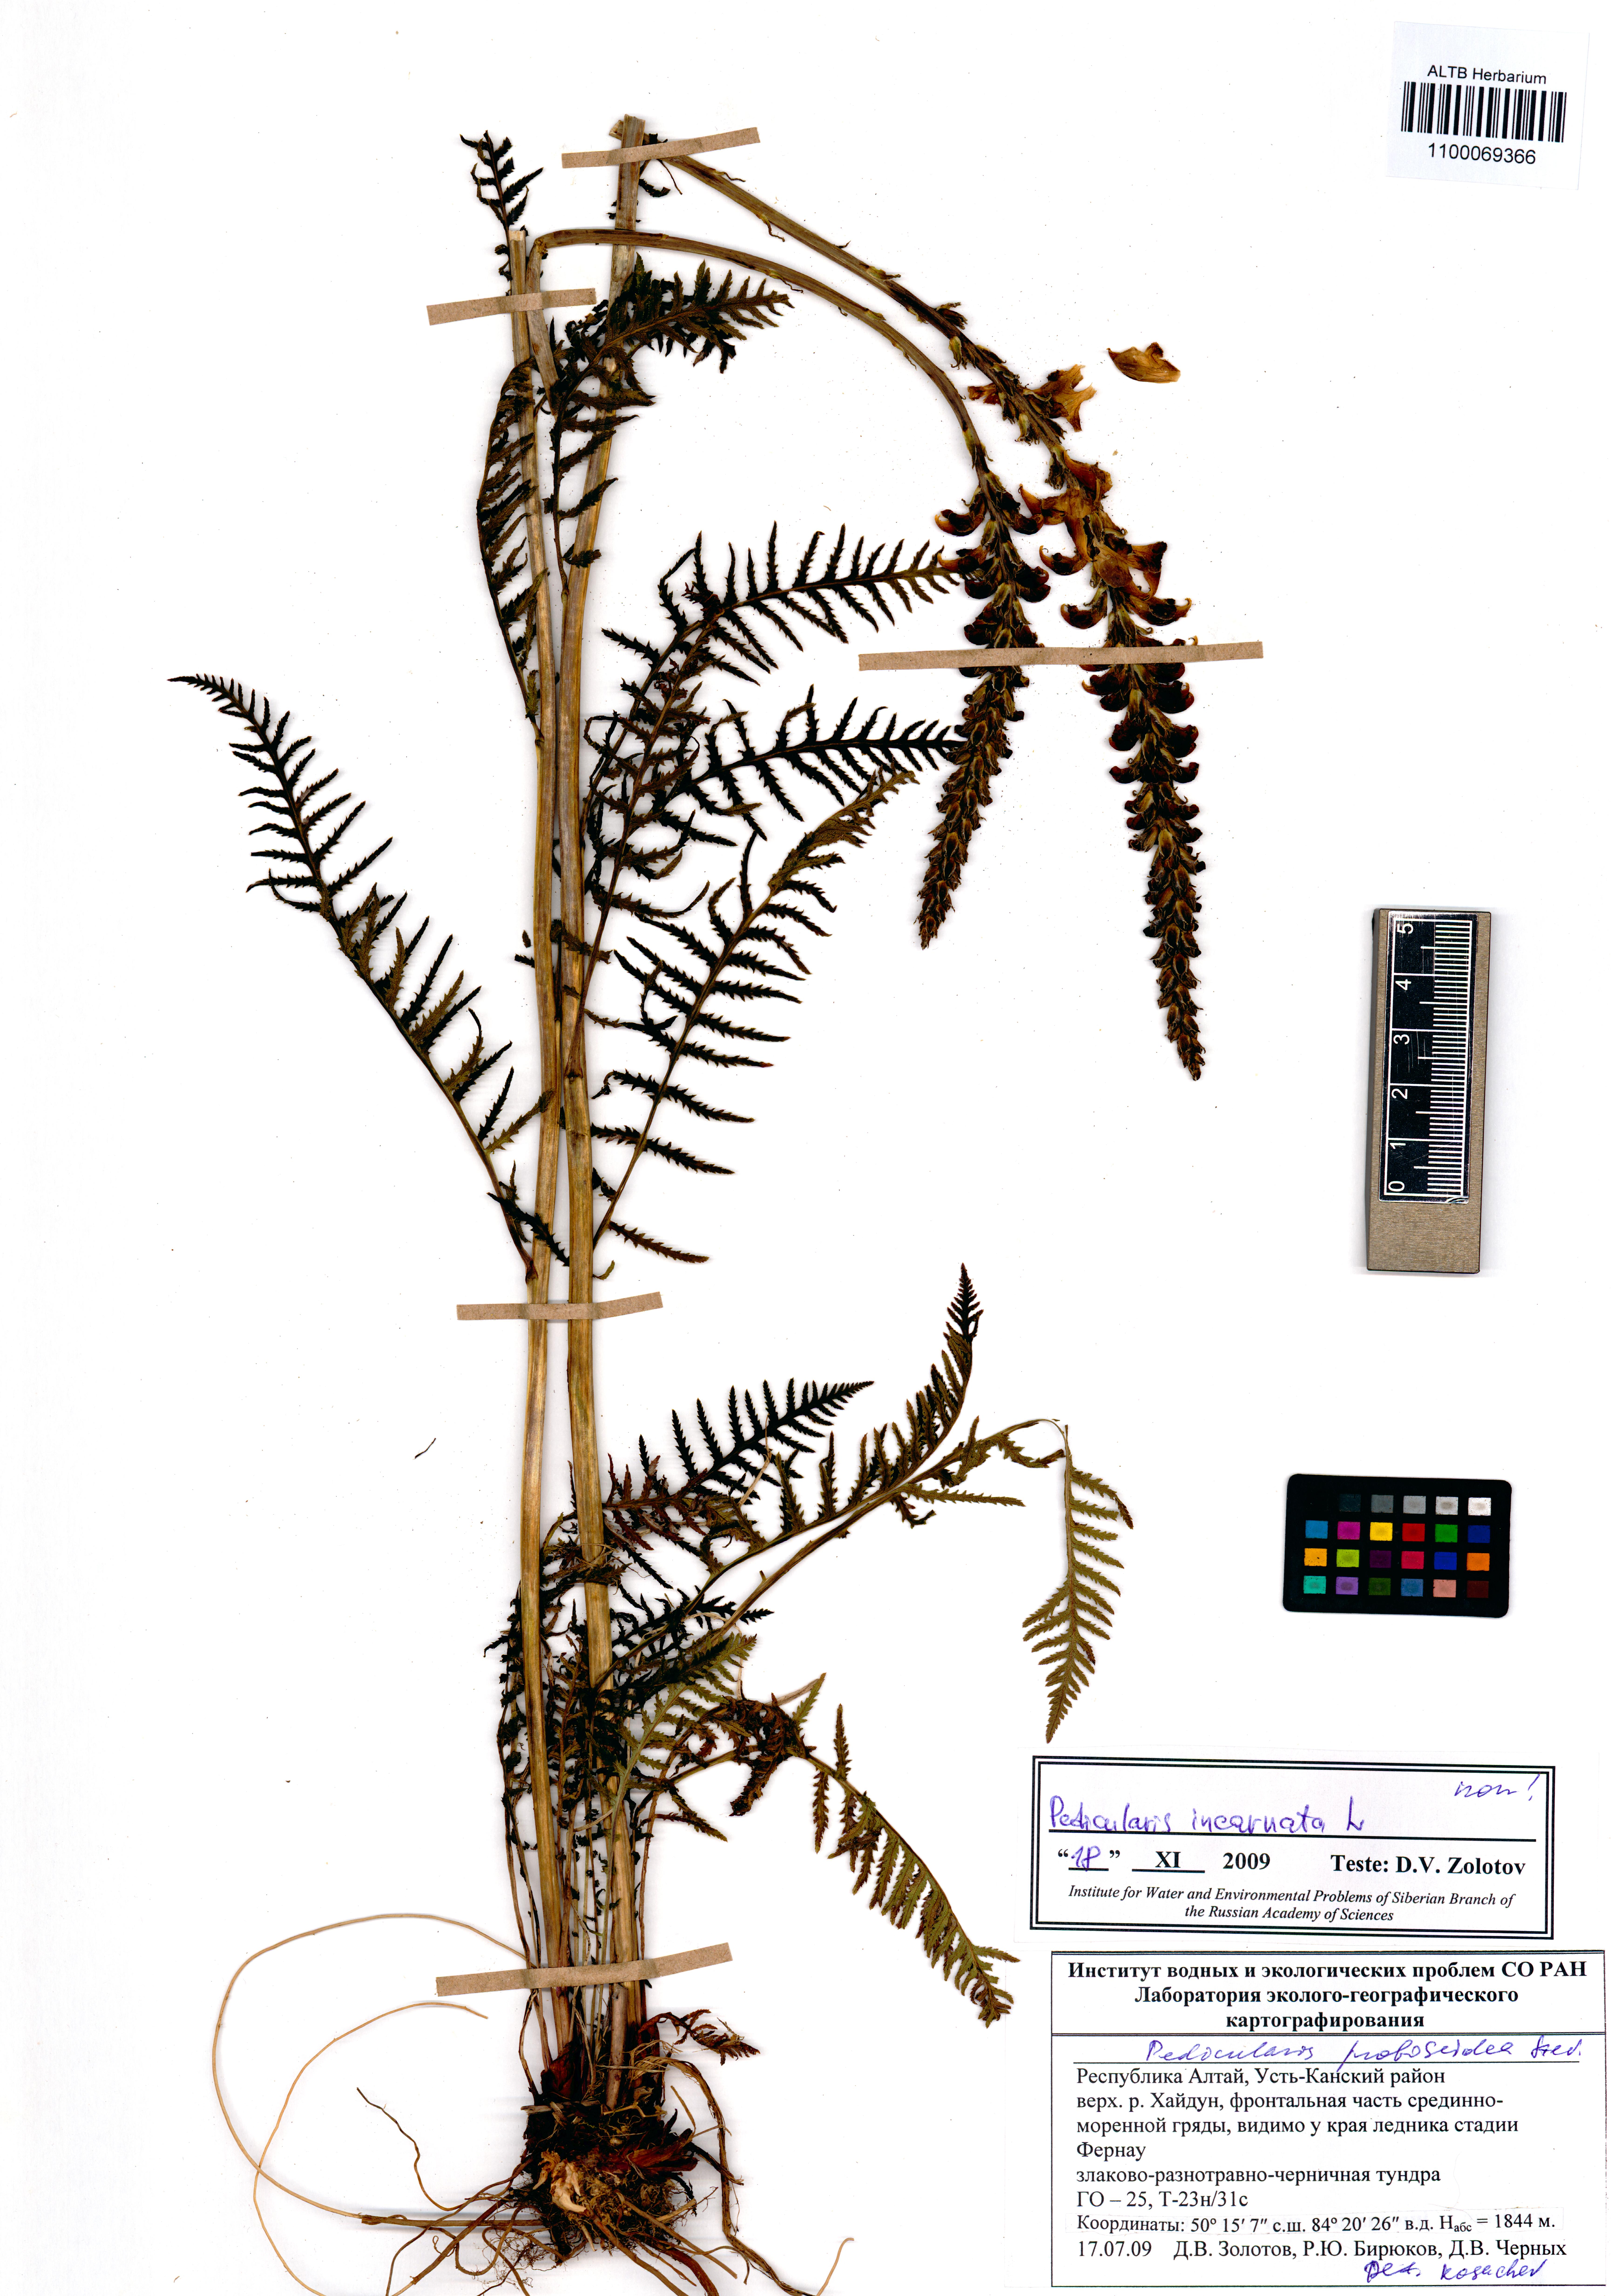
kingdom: Plantae
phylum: Tracheophyta
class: Magnoliopsida
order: Lamiales
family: Orobanchaceae
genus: Pedicularis
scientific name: Pedicularis incarnata
